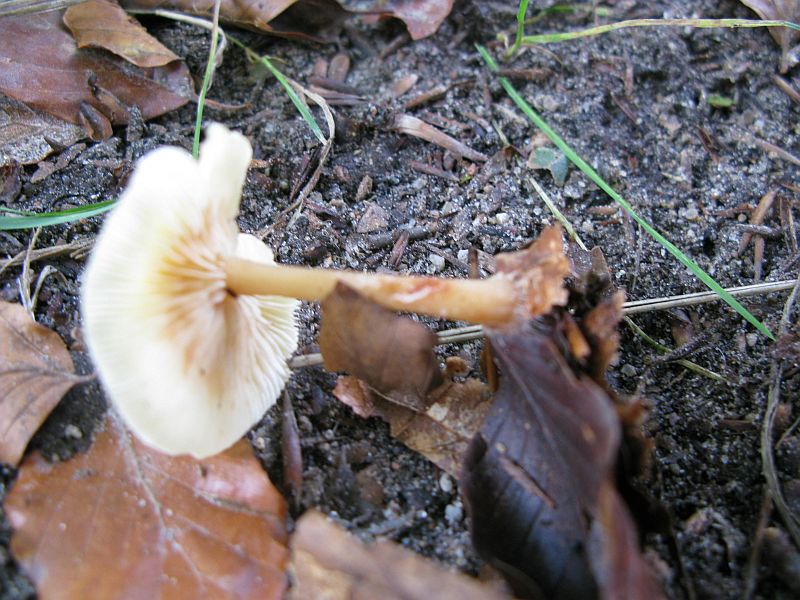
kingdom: Fungi
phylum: Basidiomycota
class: Agaricomycetes
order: Agaricales
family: Omphalotaceae
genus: Gymnopus
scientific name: Gymnopus dryophilus
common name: løv-fladhat
